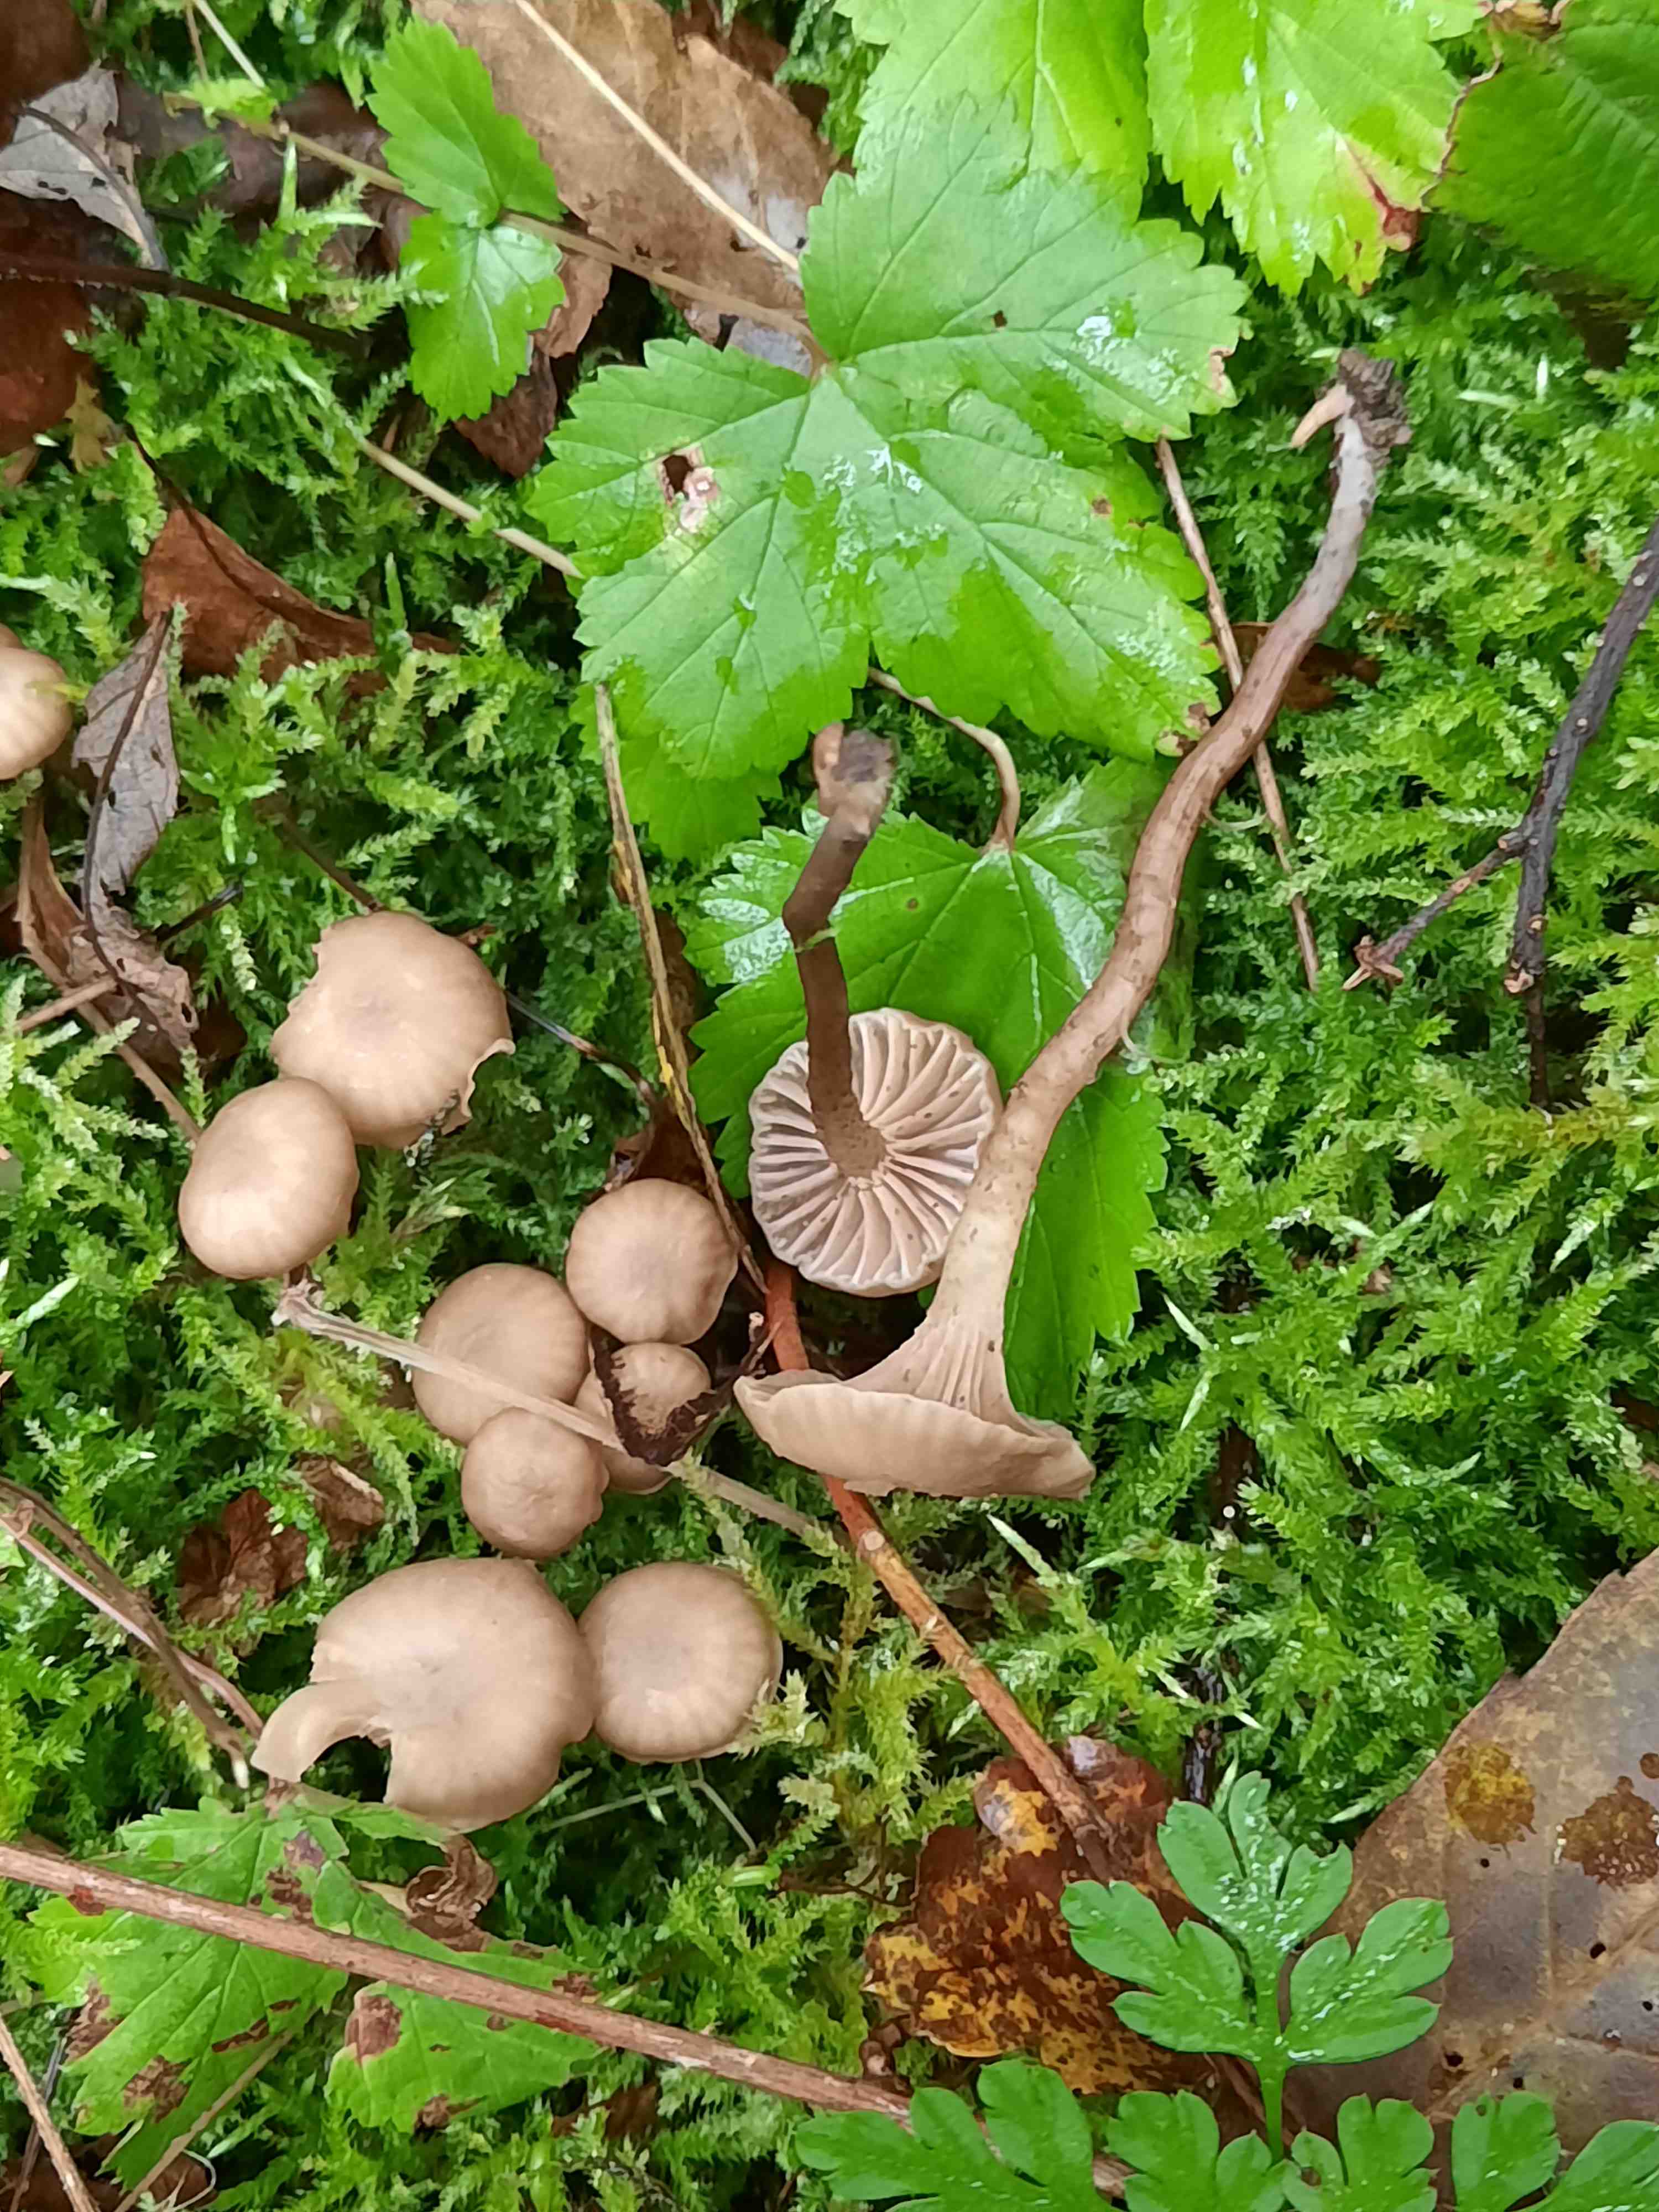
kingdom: Fungi
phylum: Basidiomycota
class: Agaricomycetes
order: Agaricales
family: Clavariaceae
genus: Hodophilus
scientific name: Hodophilus variabilipes
